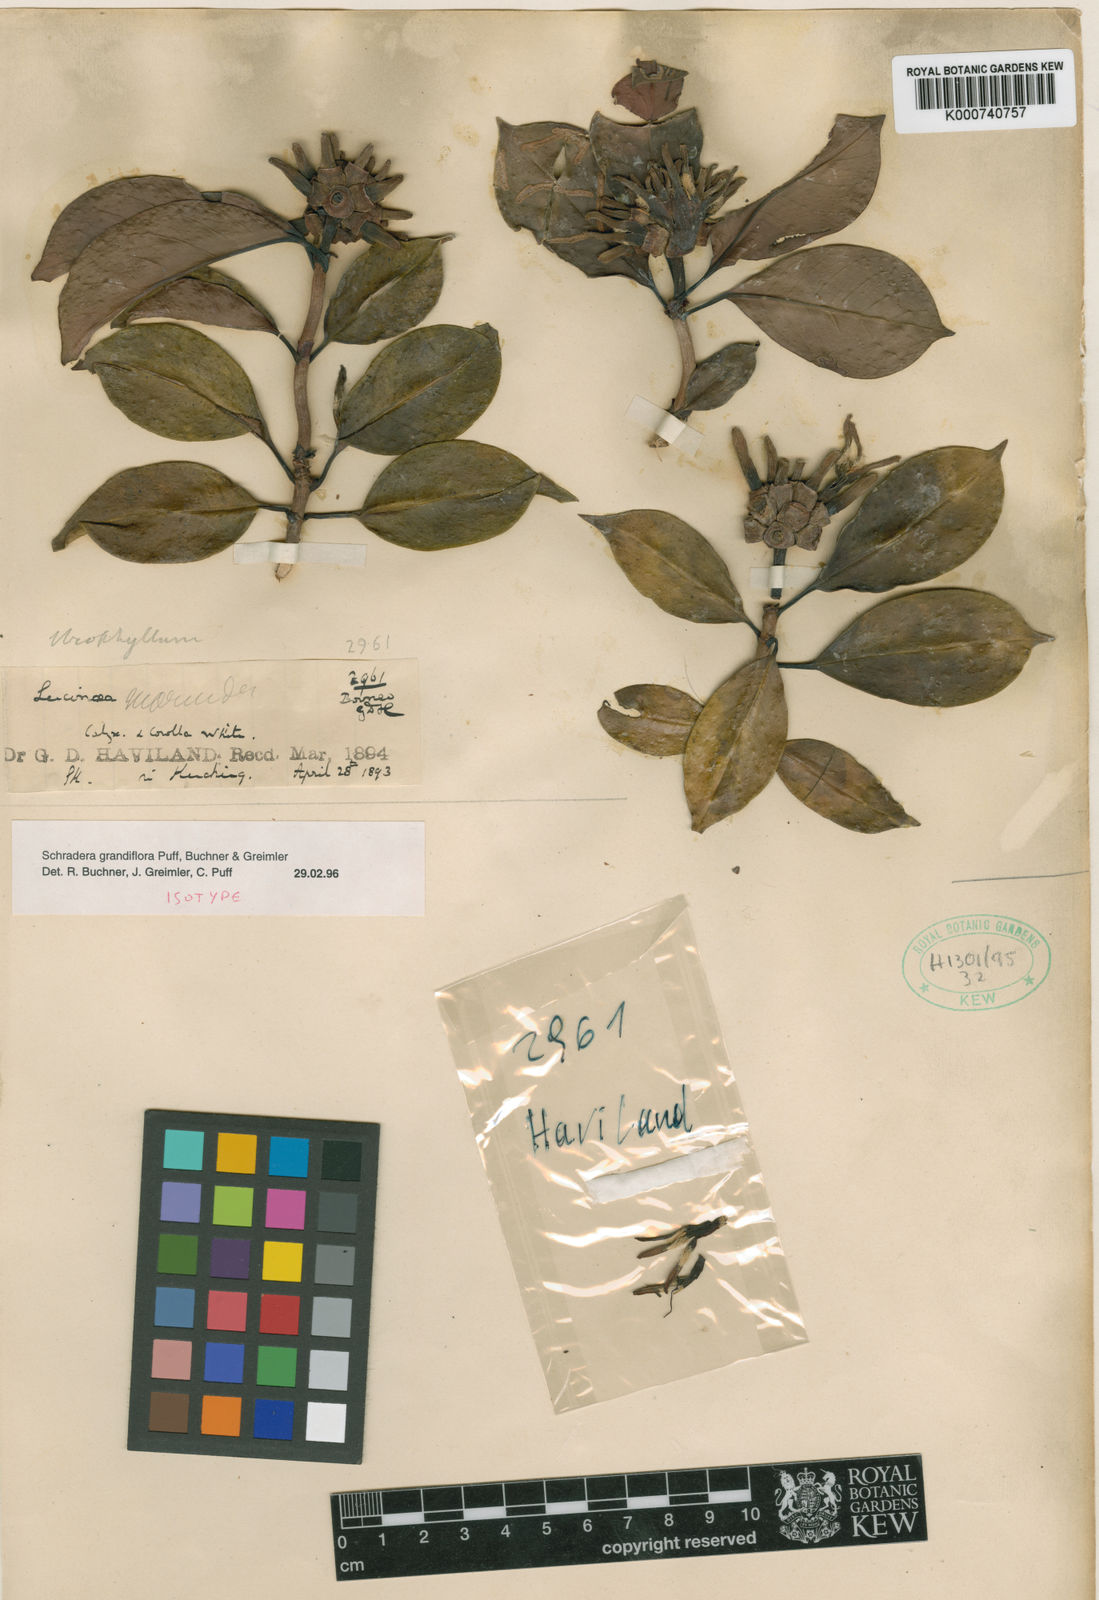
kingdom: Plantae
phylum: Tracheophyta
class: Magnoliopsida
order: Gentianales
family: Rubiaceae
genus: Schradera
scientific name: Schradera grandiflora
